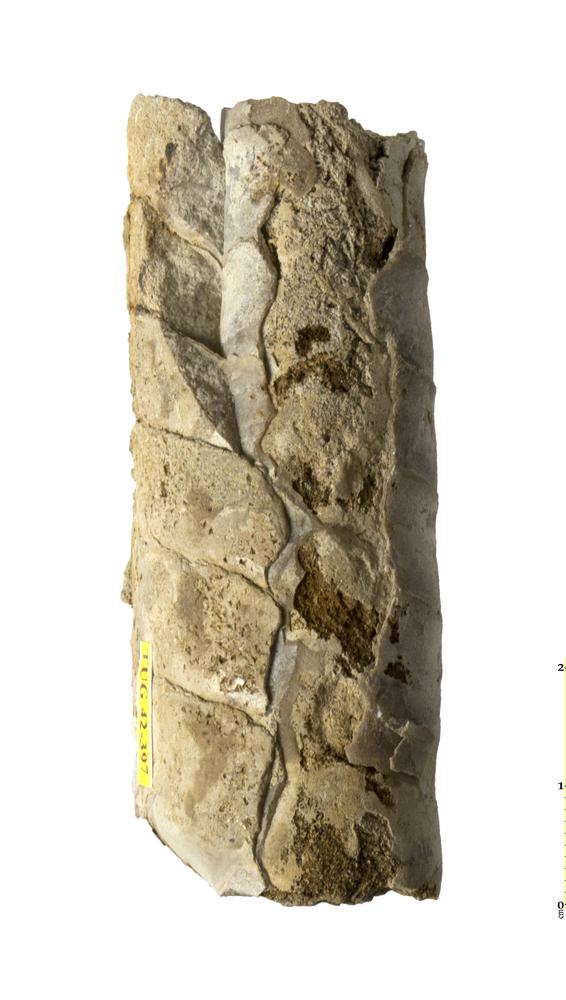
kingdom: Animalia
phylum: Mollusca
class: Cephalopoda
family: Endoceratidae
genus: Proterovaginoceras
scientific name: Proterovaginoceras Endoceras incognitum
